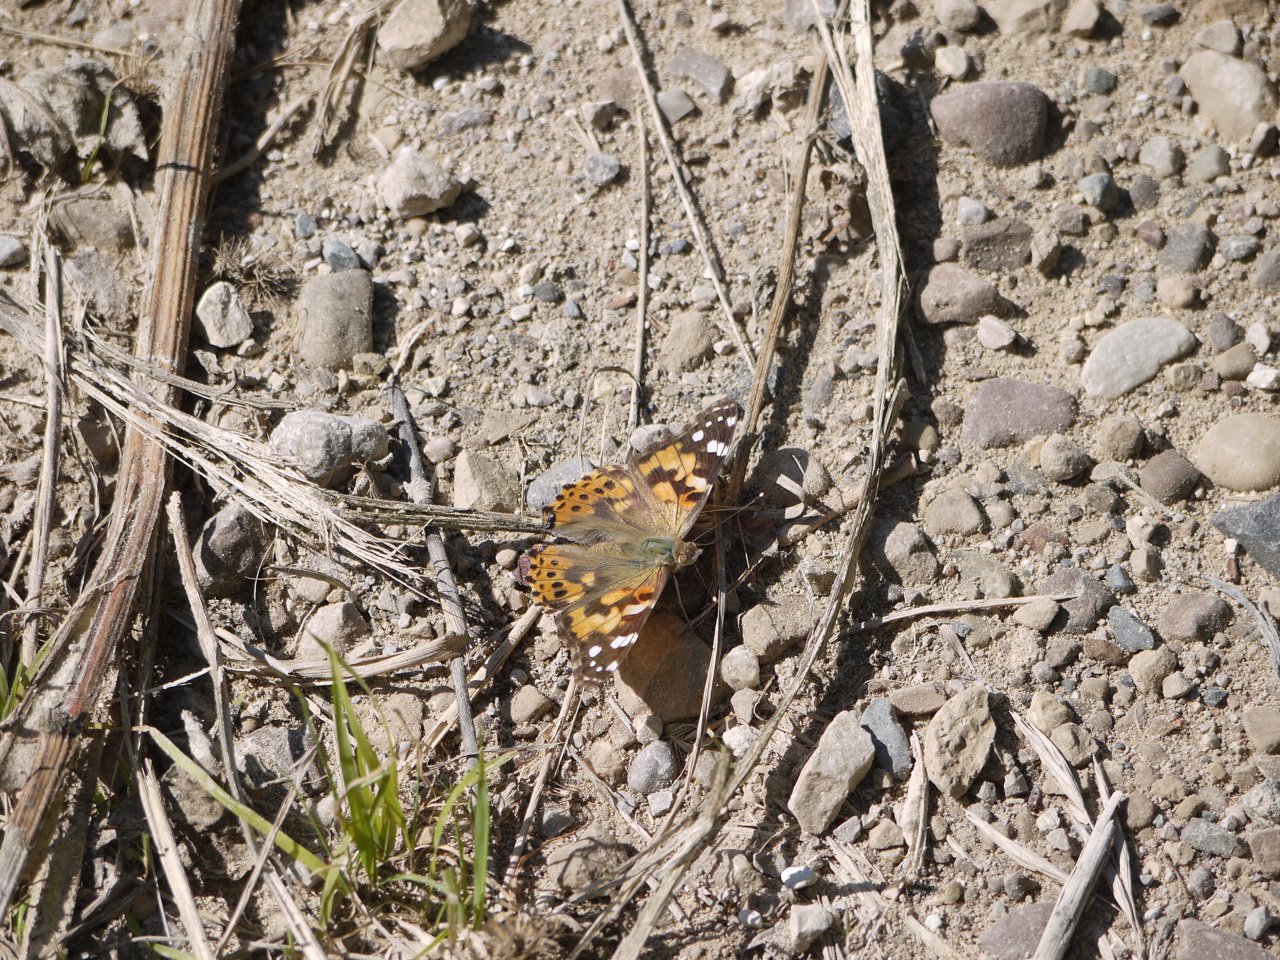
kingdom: Animalia
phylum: Arthropoda
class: Insecta
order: Lepidoptera
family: Nymphalidae
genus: Vanessa
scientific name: Vanessa cardui
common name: Painted Lady
